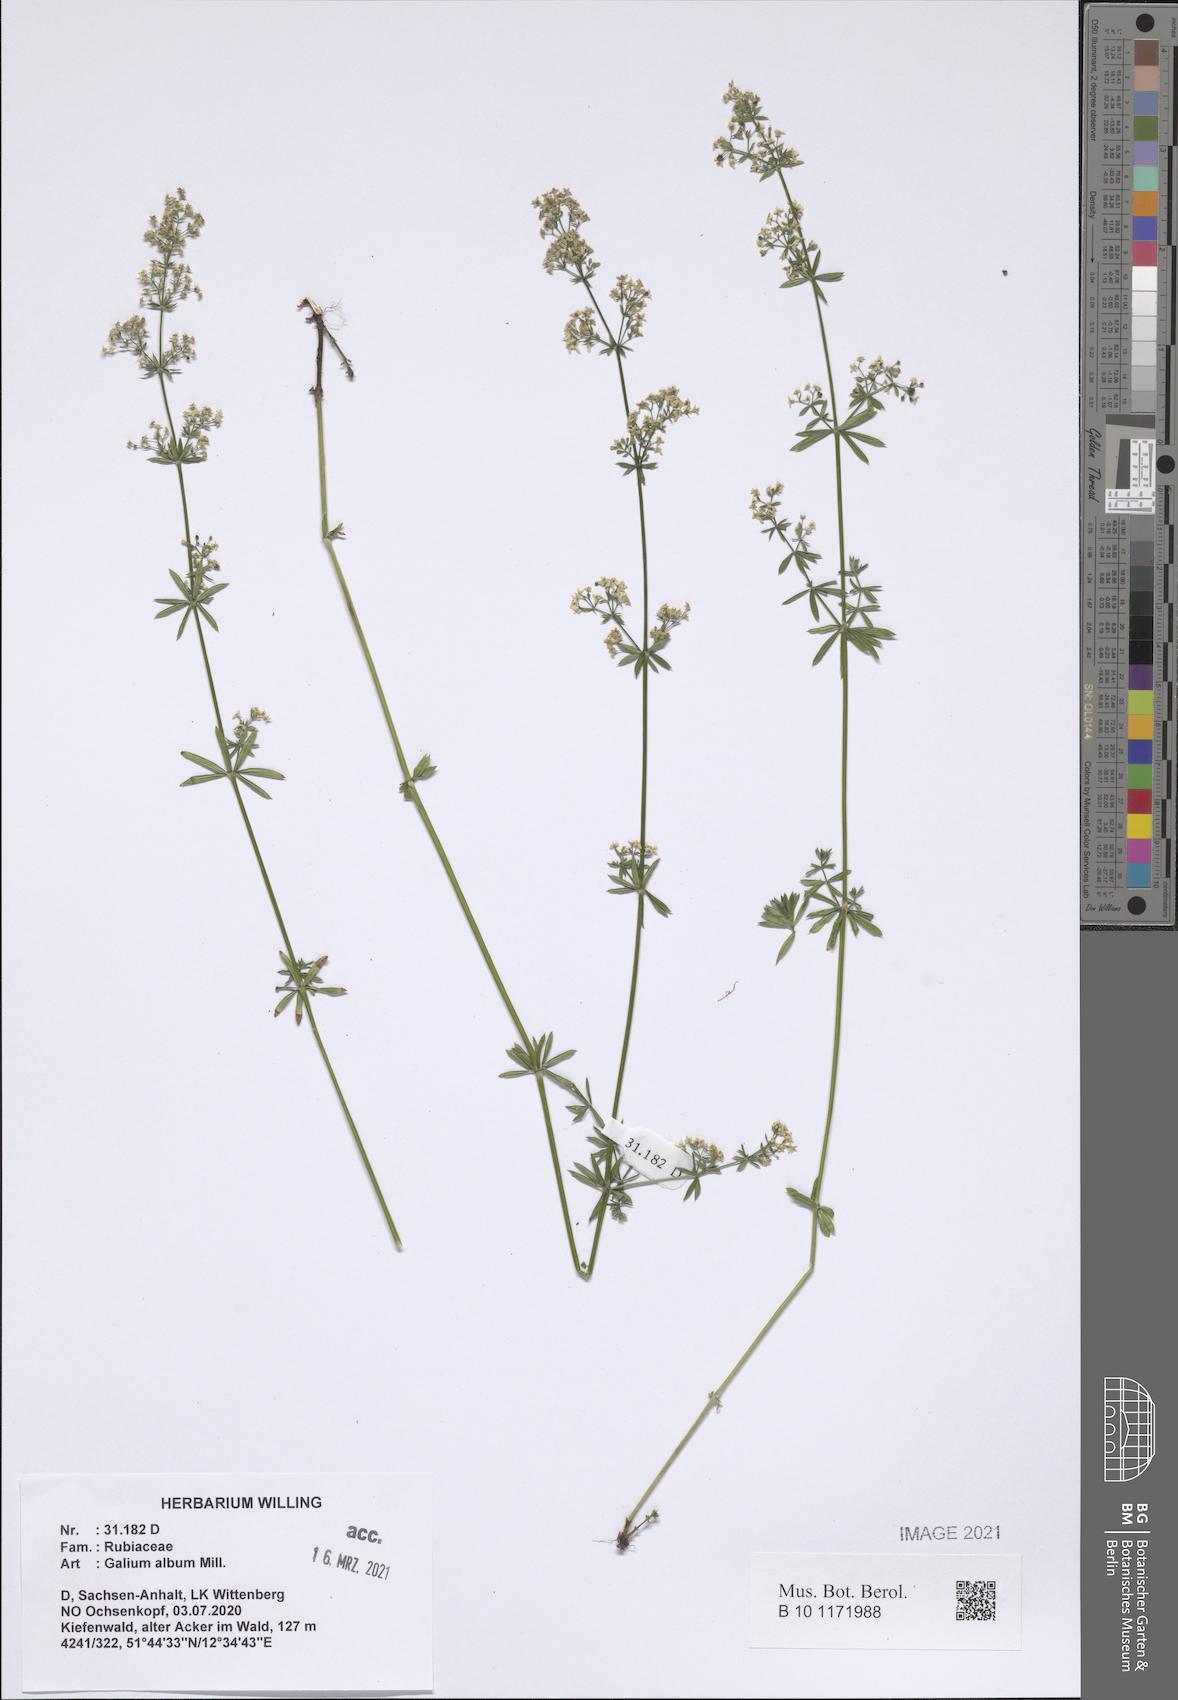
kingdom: Plantae
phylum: Tracheophyta
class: Magnoliopsida
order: Gentianales
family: Rubiaceae
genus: Galium
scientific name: Galium album
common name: White bedstraw
